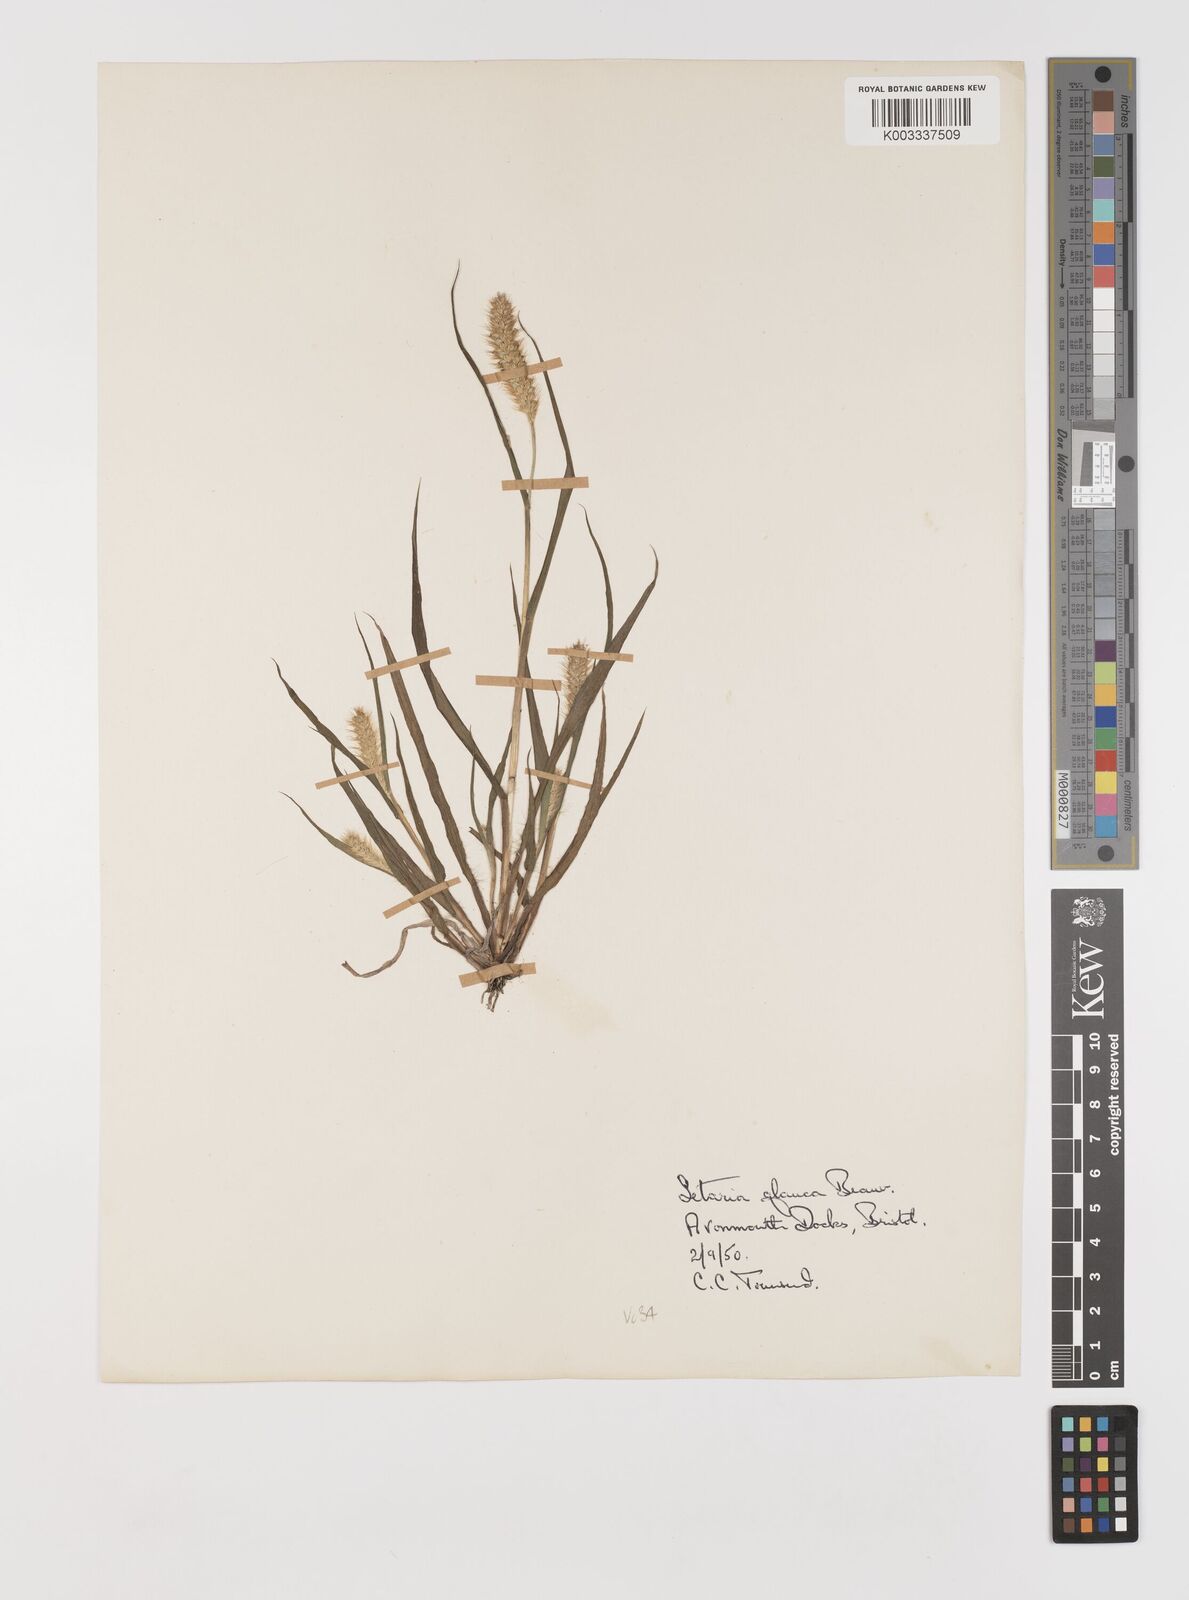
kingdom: Plantae
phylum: Tracheophyta
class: Liliopsida
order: Poales
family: Poaceae
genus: Setaria
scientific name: Setaria pumila
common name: Yellow bristle-grass
